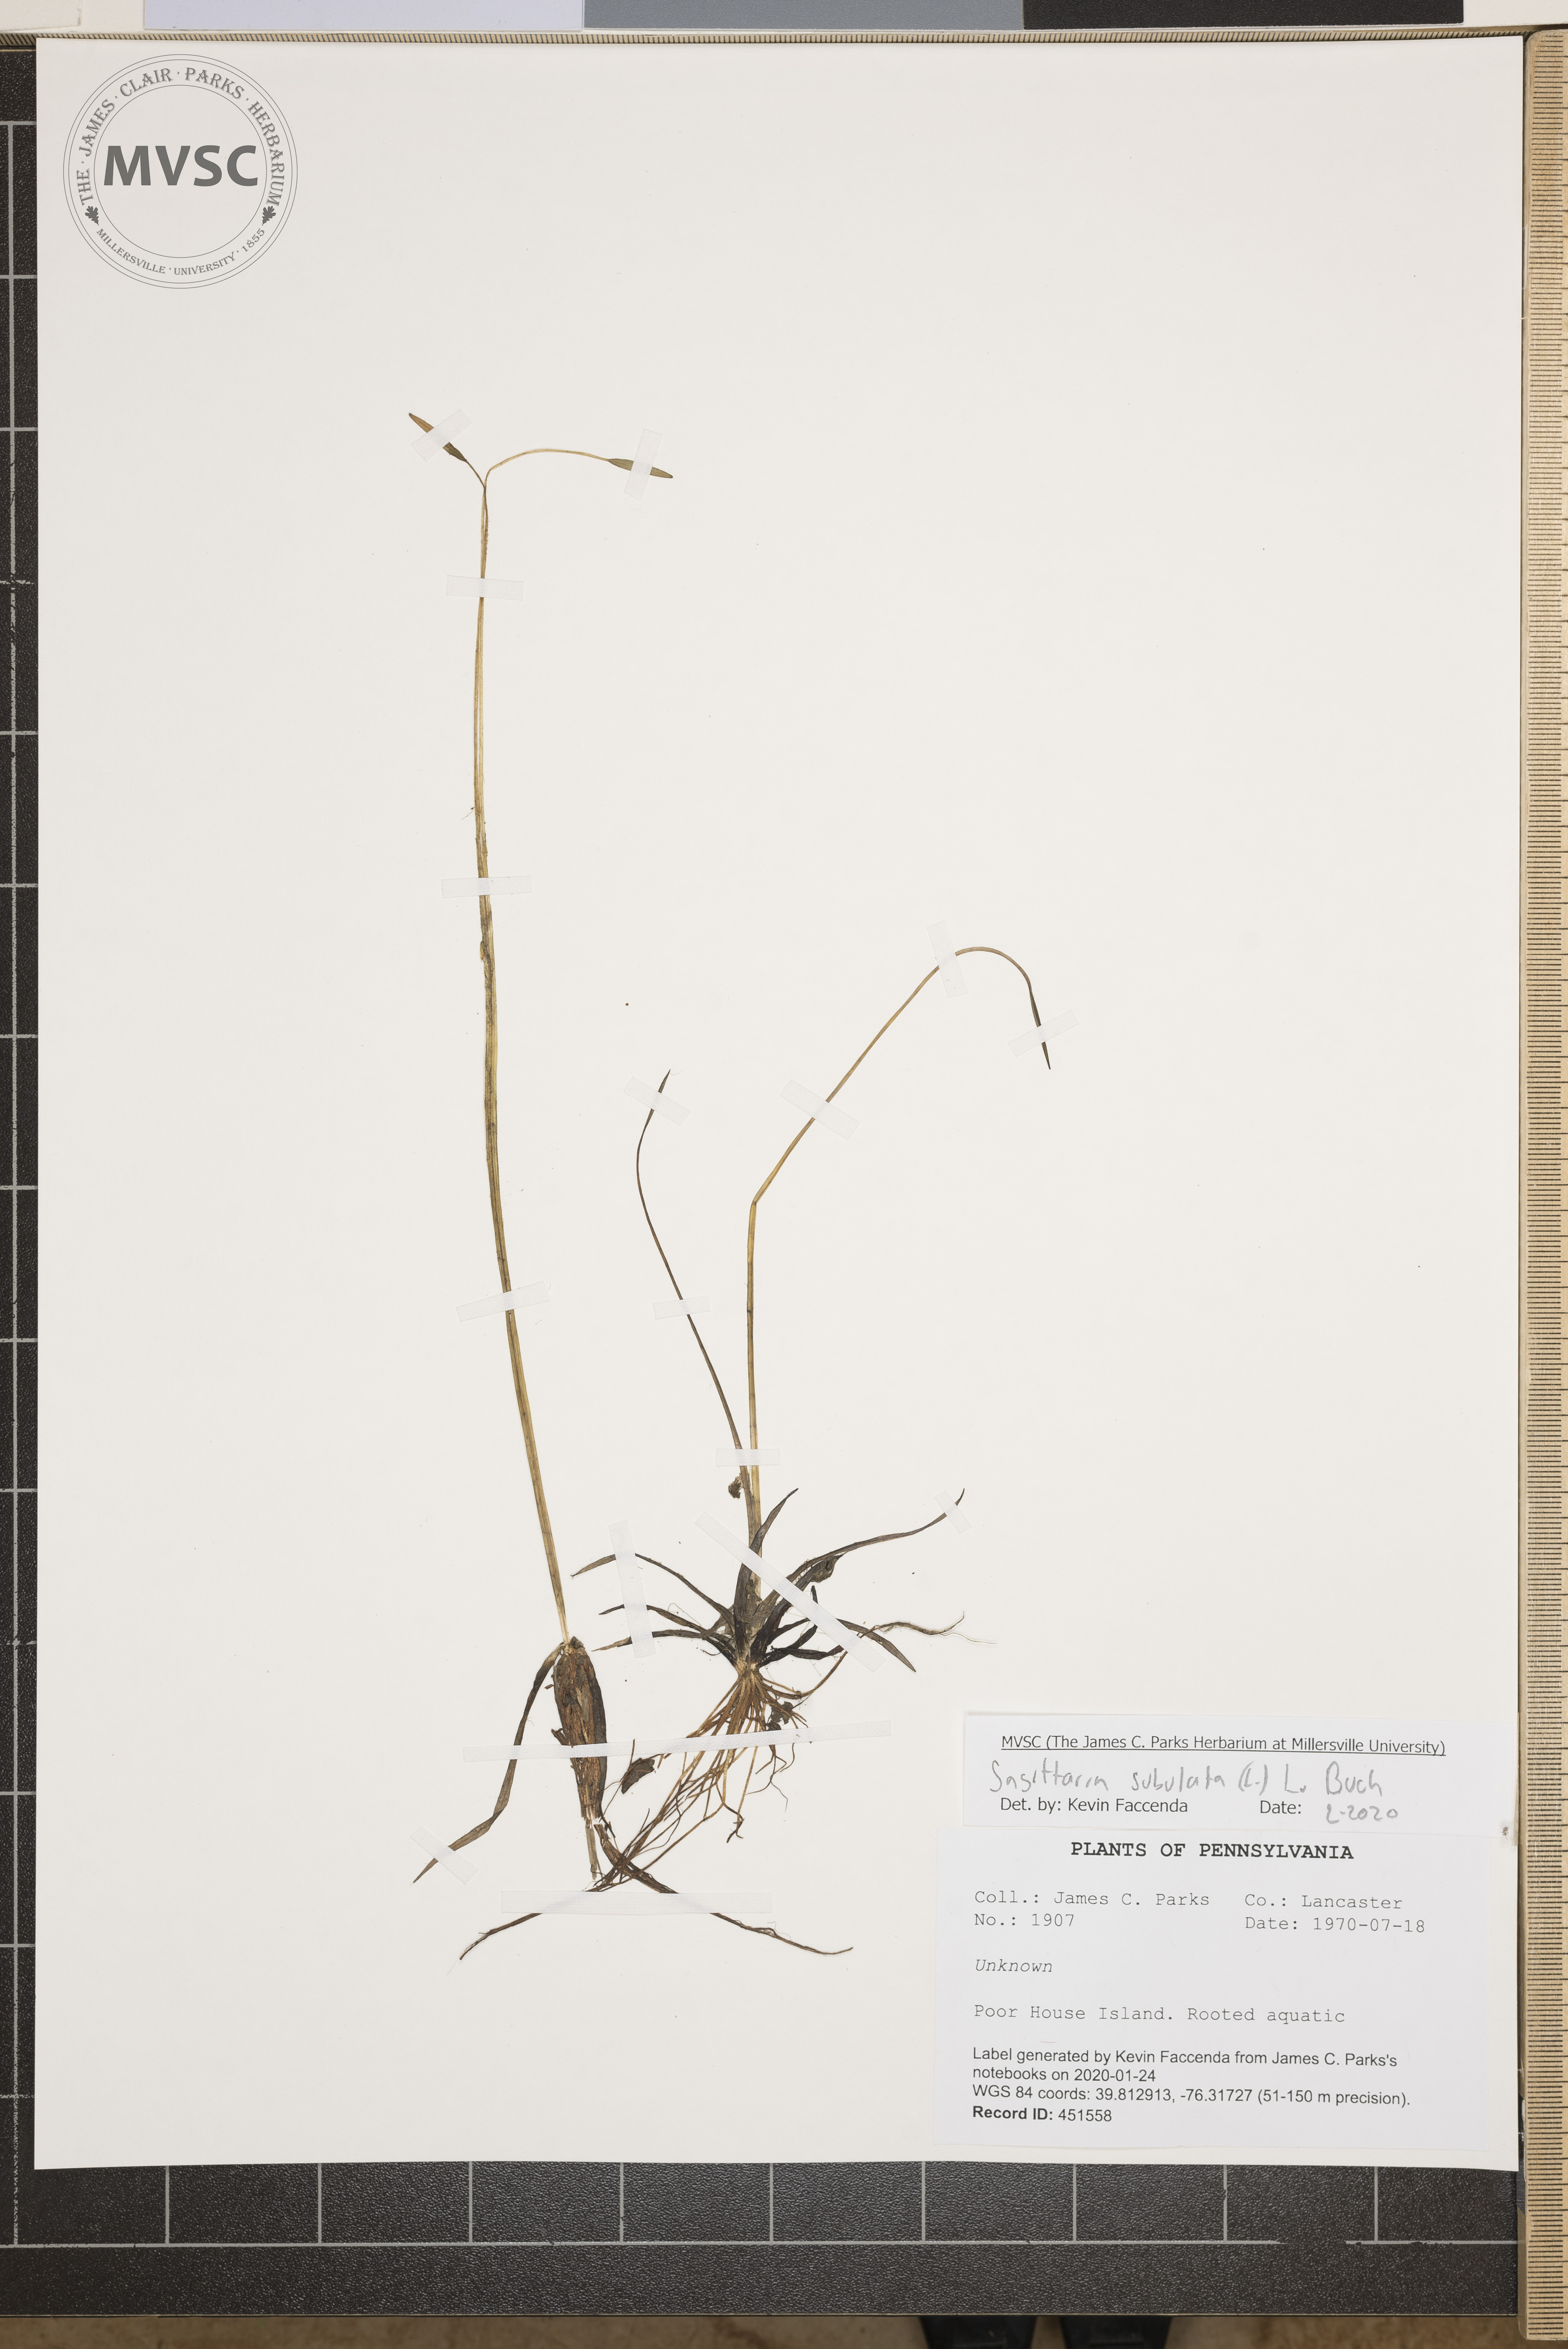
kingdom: Plantae
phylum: Tracheophyta
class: Liliopsida
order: Alismatales
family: Alismataceae
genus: Sagittaria
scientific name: Sagittaria subulata
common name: Narrow-leaved arrowhead
